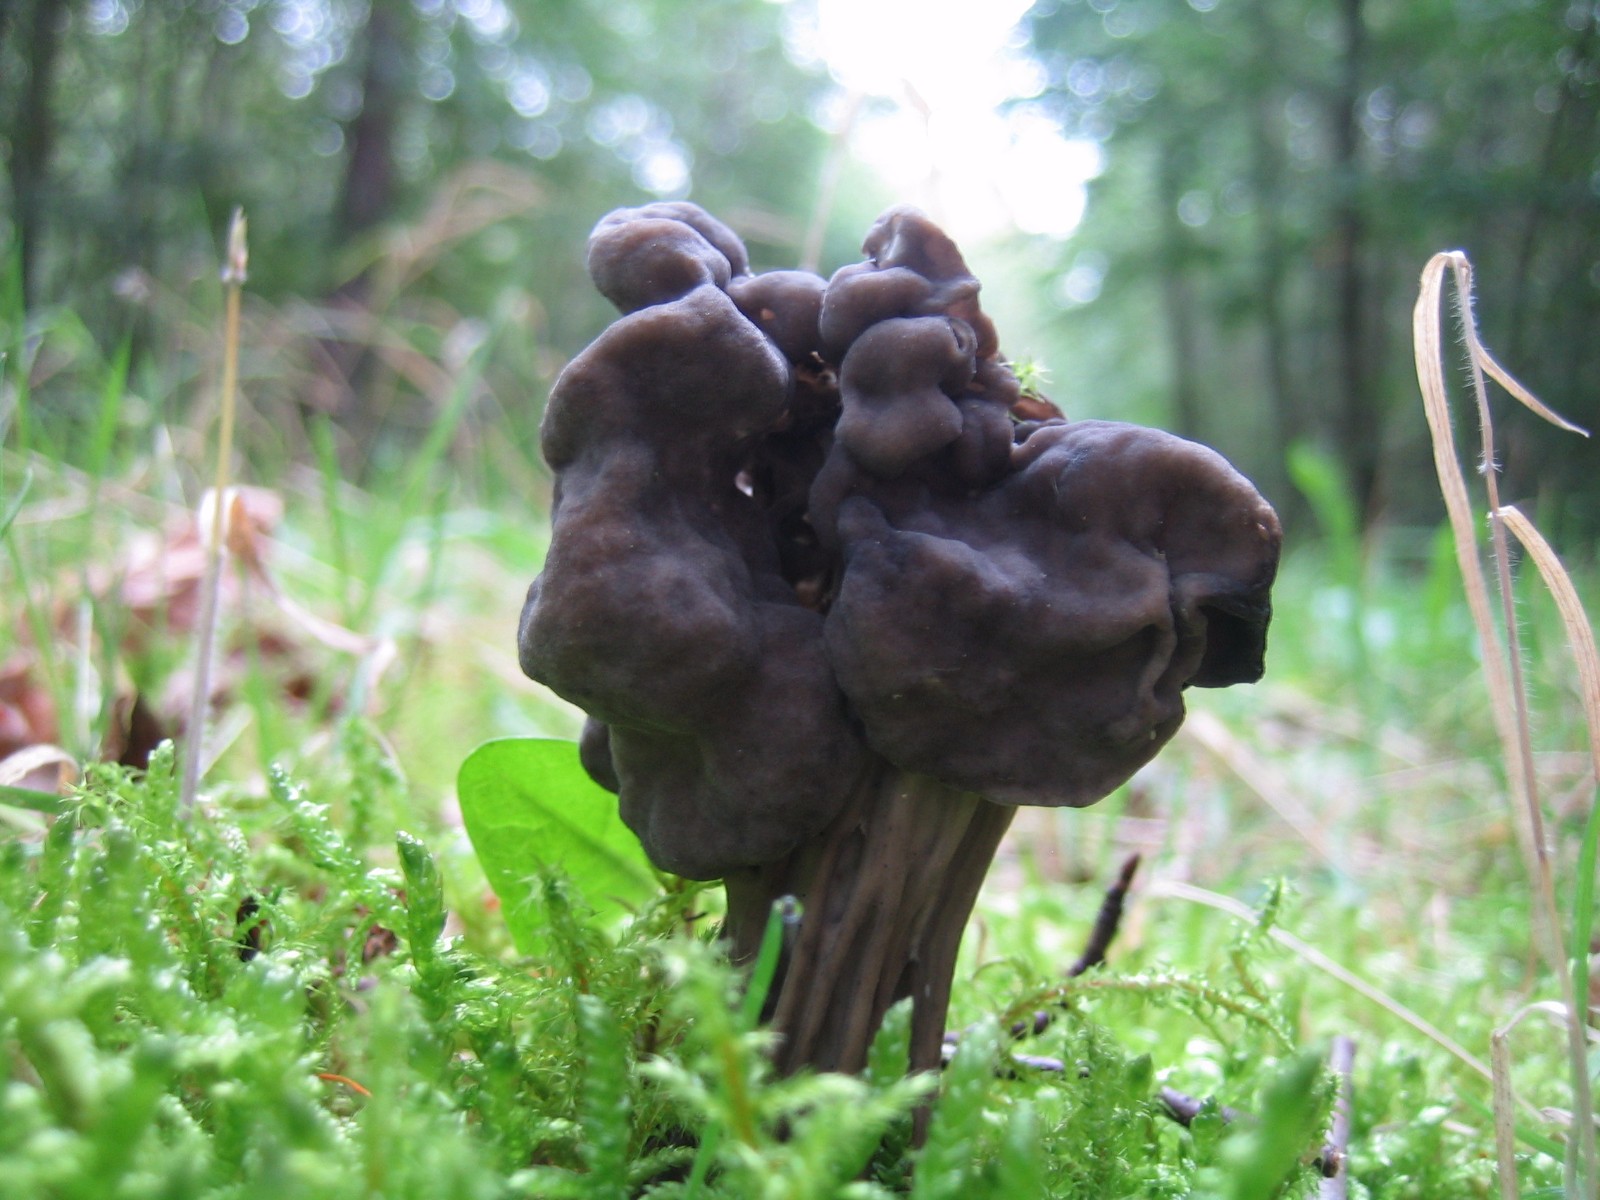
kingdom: Fungi
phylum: Ascomycota
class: Pezizomycetes
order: Pezizales
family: Helvellaceae
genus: Helvella
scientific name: Helvella lacunosa
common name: grubet foldhat
